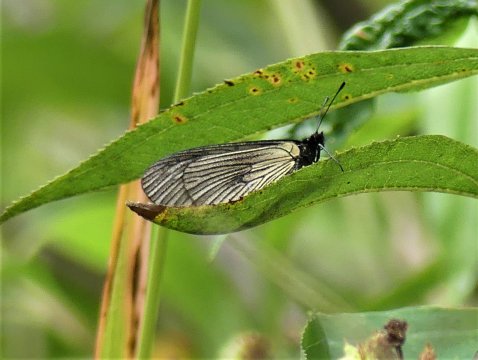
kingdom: Animalia
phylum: Arthropoda
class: Insecta
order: Lepidoptera
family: Nymphalidae
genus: Acraea
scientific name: Acraea Abananote erinome
